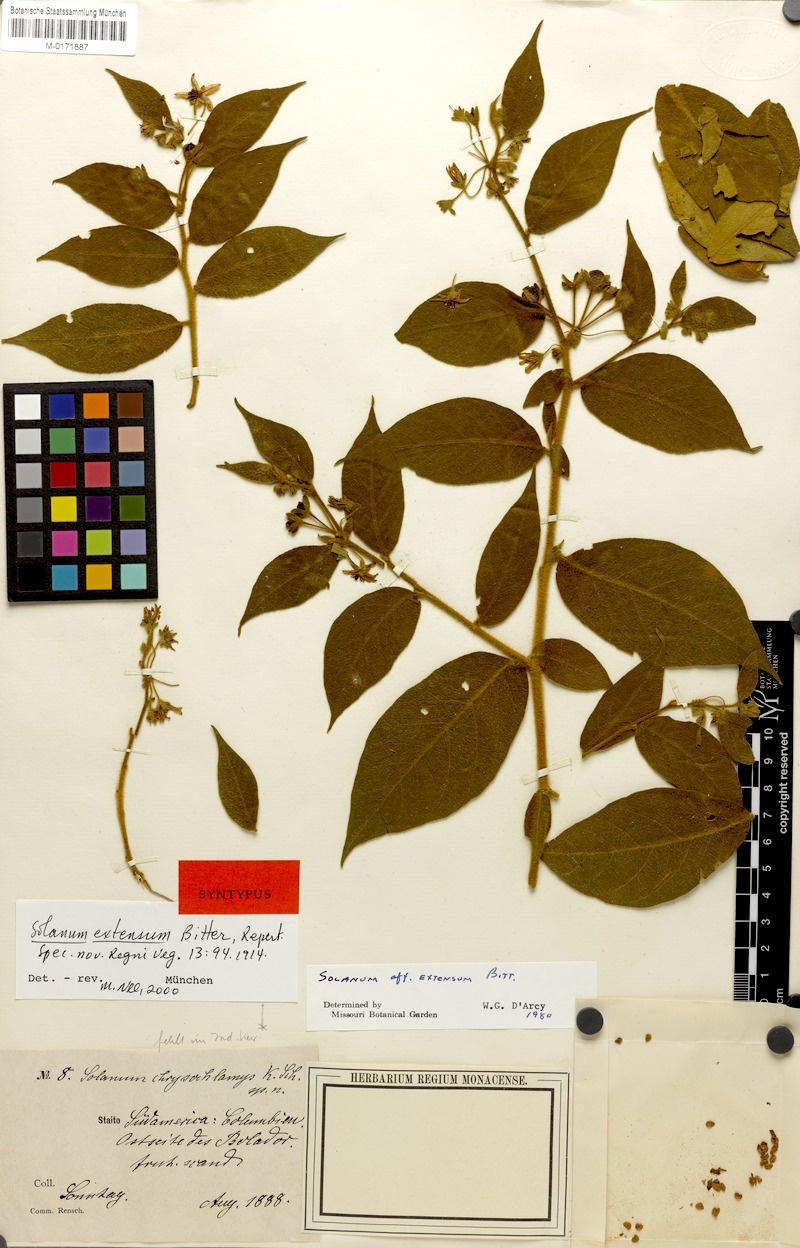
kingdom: Plantae
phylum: Tracheophyta
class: Magnoliopsida
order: Solanales
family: Solanaceae
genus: Solanum
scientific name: Solanum cordovense
